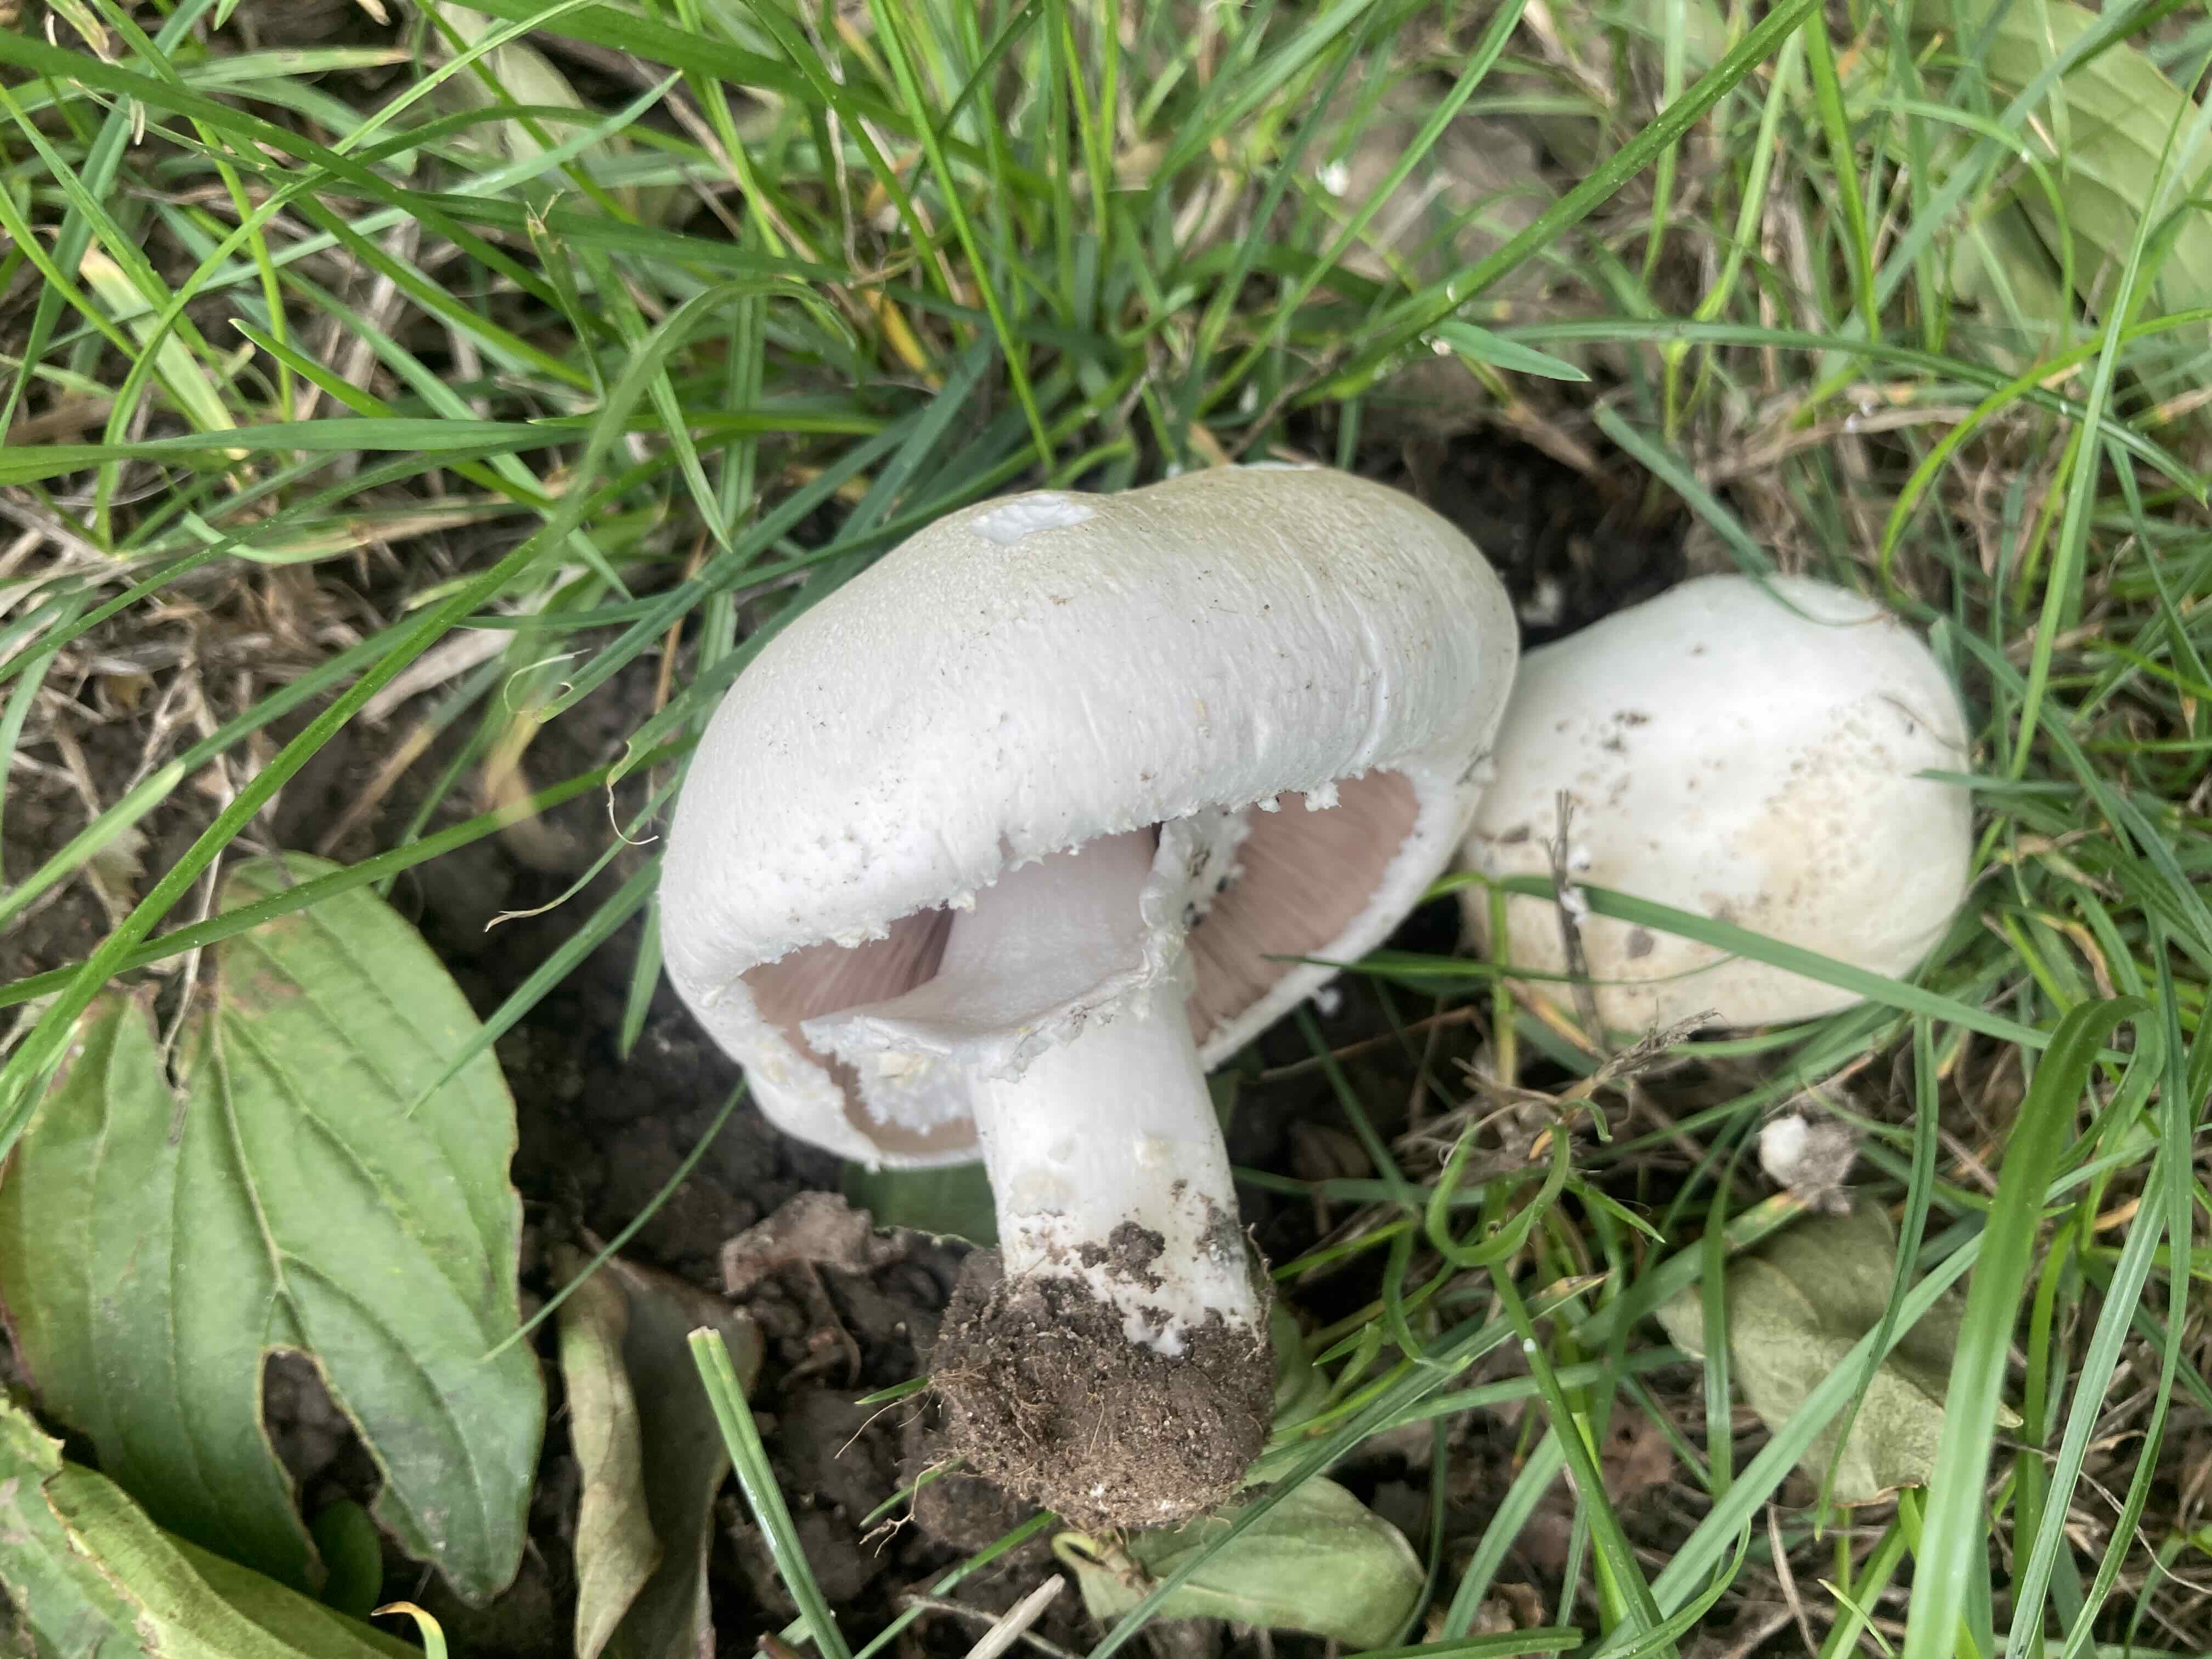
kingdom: Fungi
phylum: Basidiomycota
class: Agaricomycetes
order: Agaricales
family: Agaricaceae
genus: Agaricus
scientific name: Agaricus
